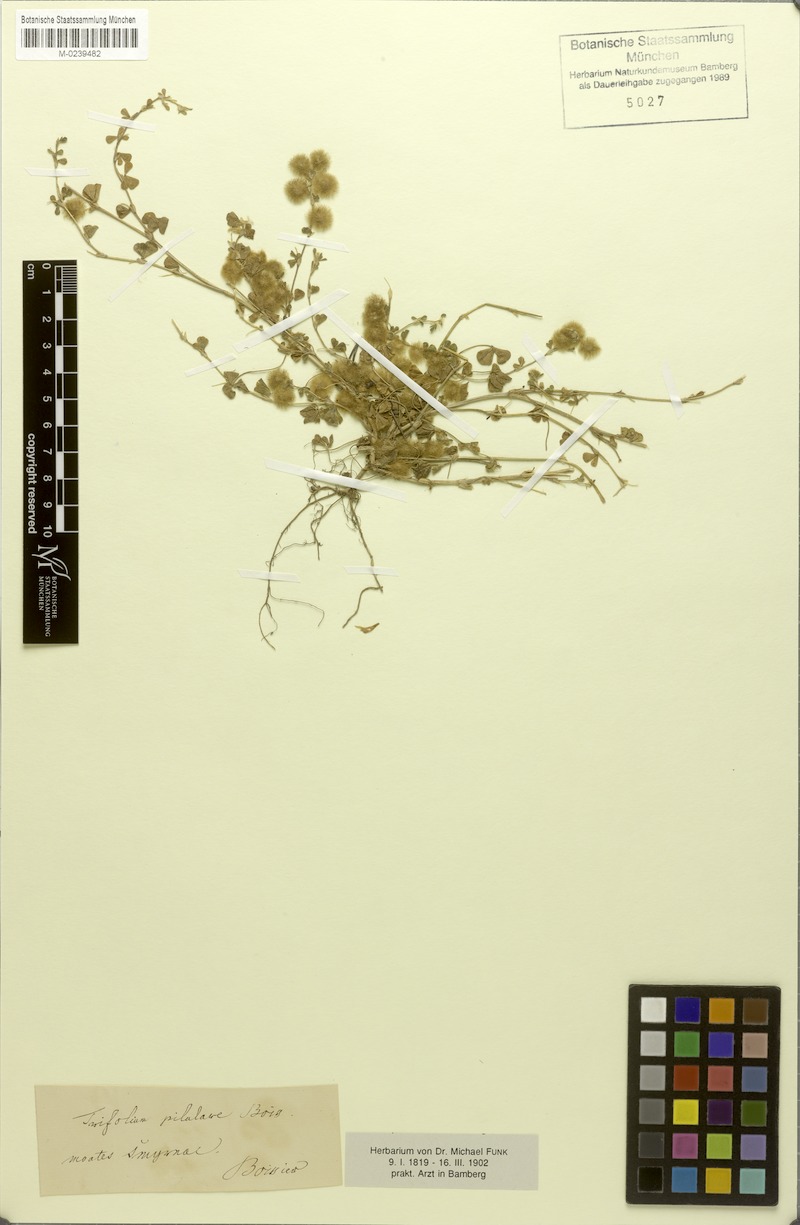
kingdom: Plantae
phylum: Tracheophyta
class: Magnoliopsida
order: Fabales
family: Fabaceae
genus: Trifolium
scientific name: Trifolium pilulare
